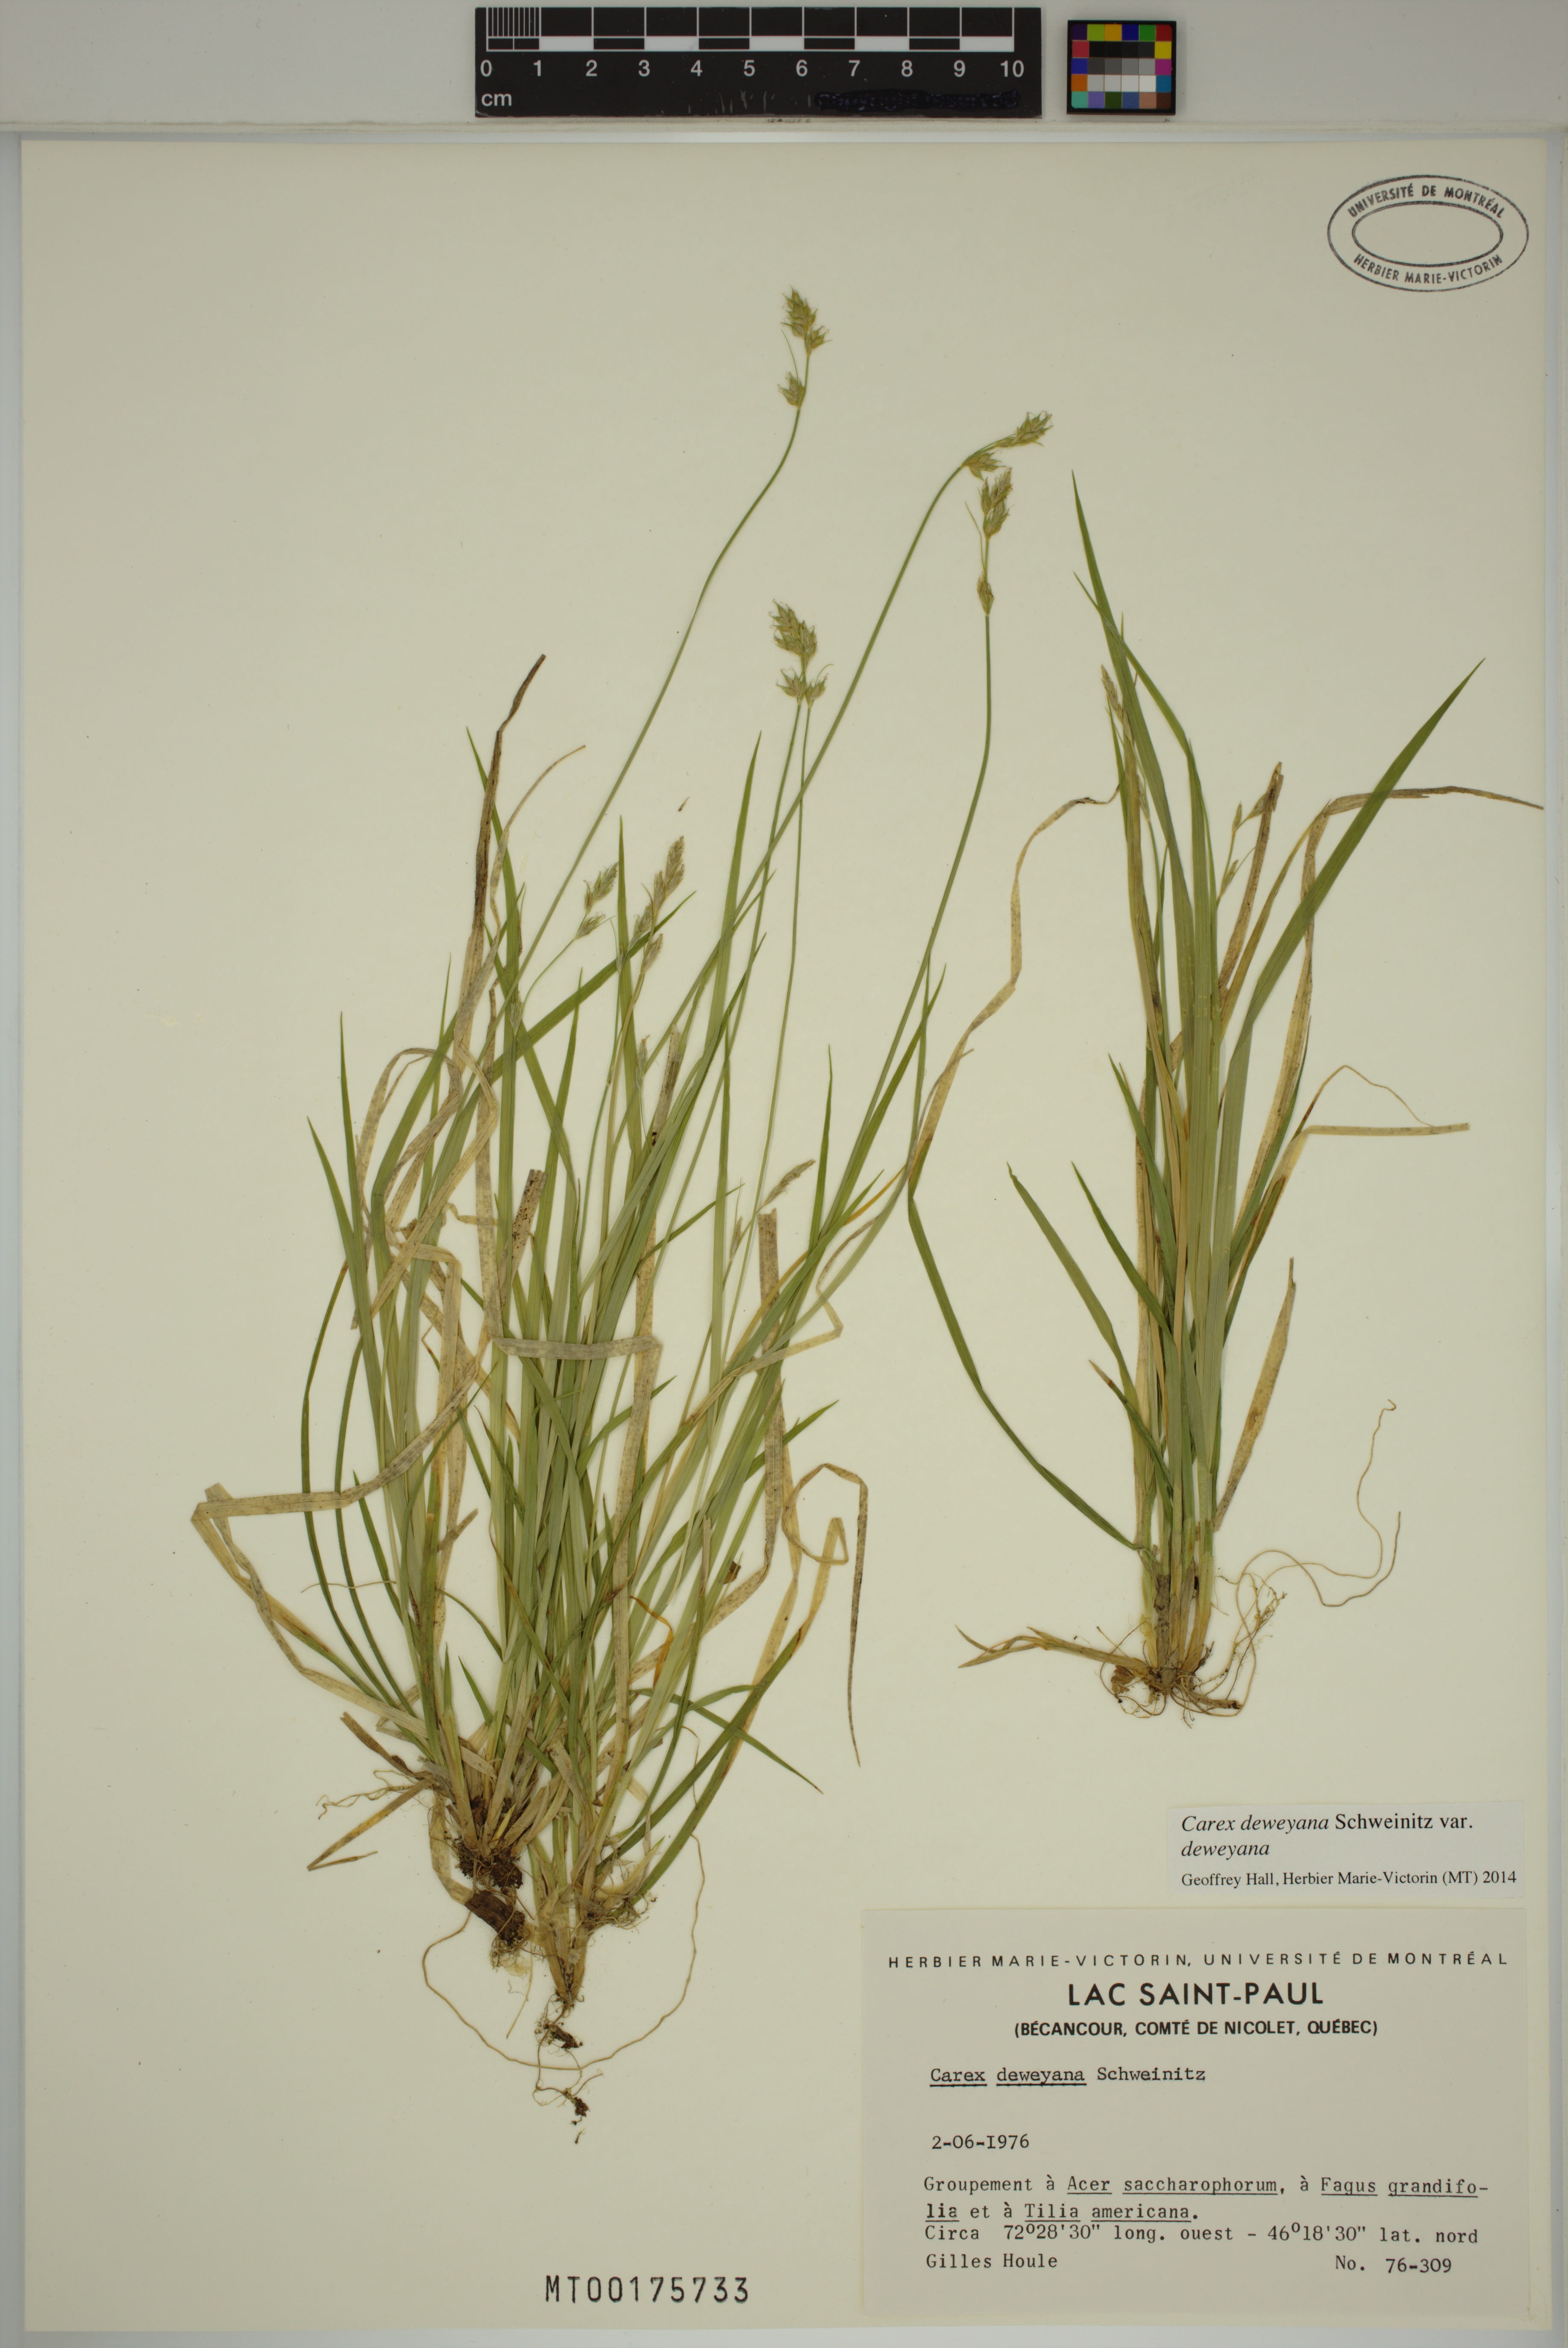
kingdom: Plantae
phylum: Tracheophyta
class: Liliopsida
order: Poales
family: Cyperaceae
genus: Carex
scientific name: Carex deweyana
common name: Dewey's sedge
